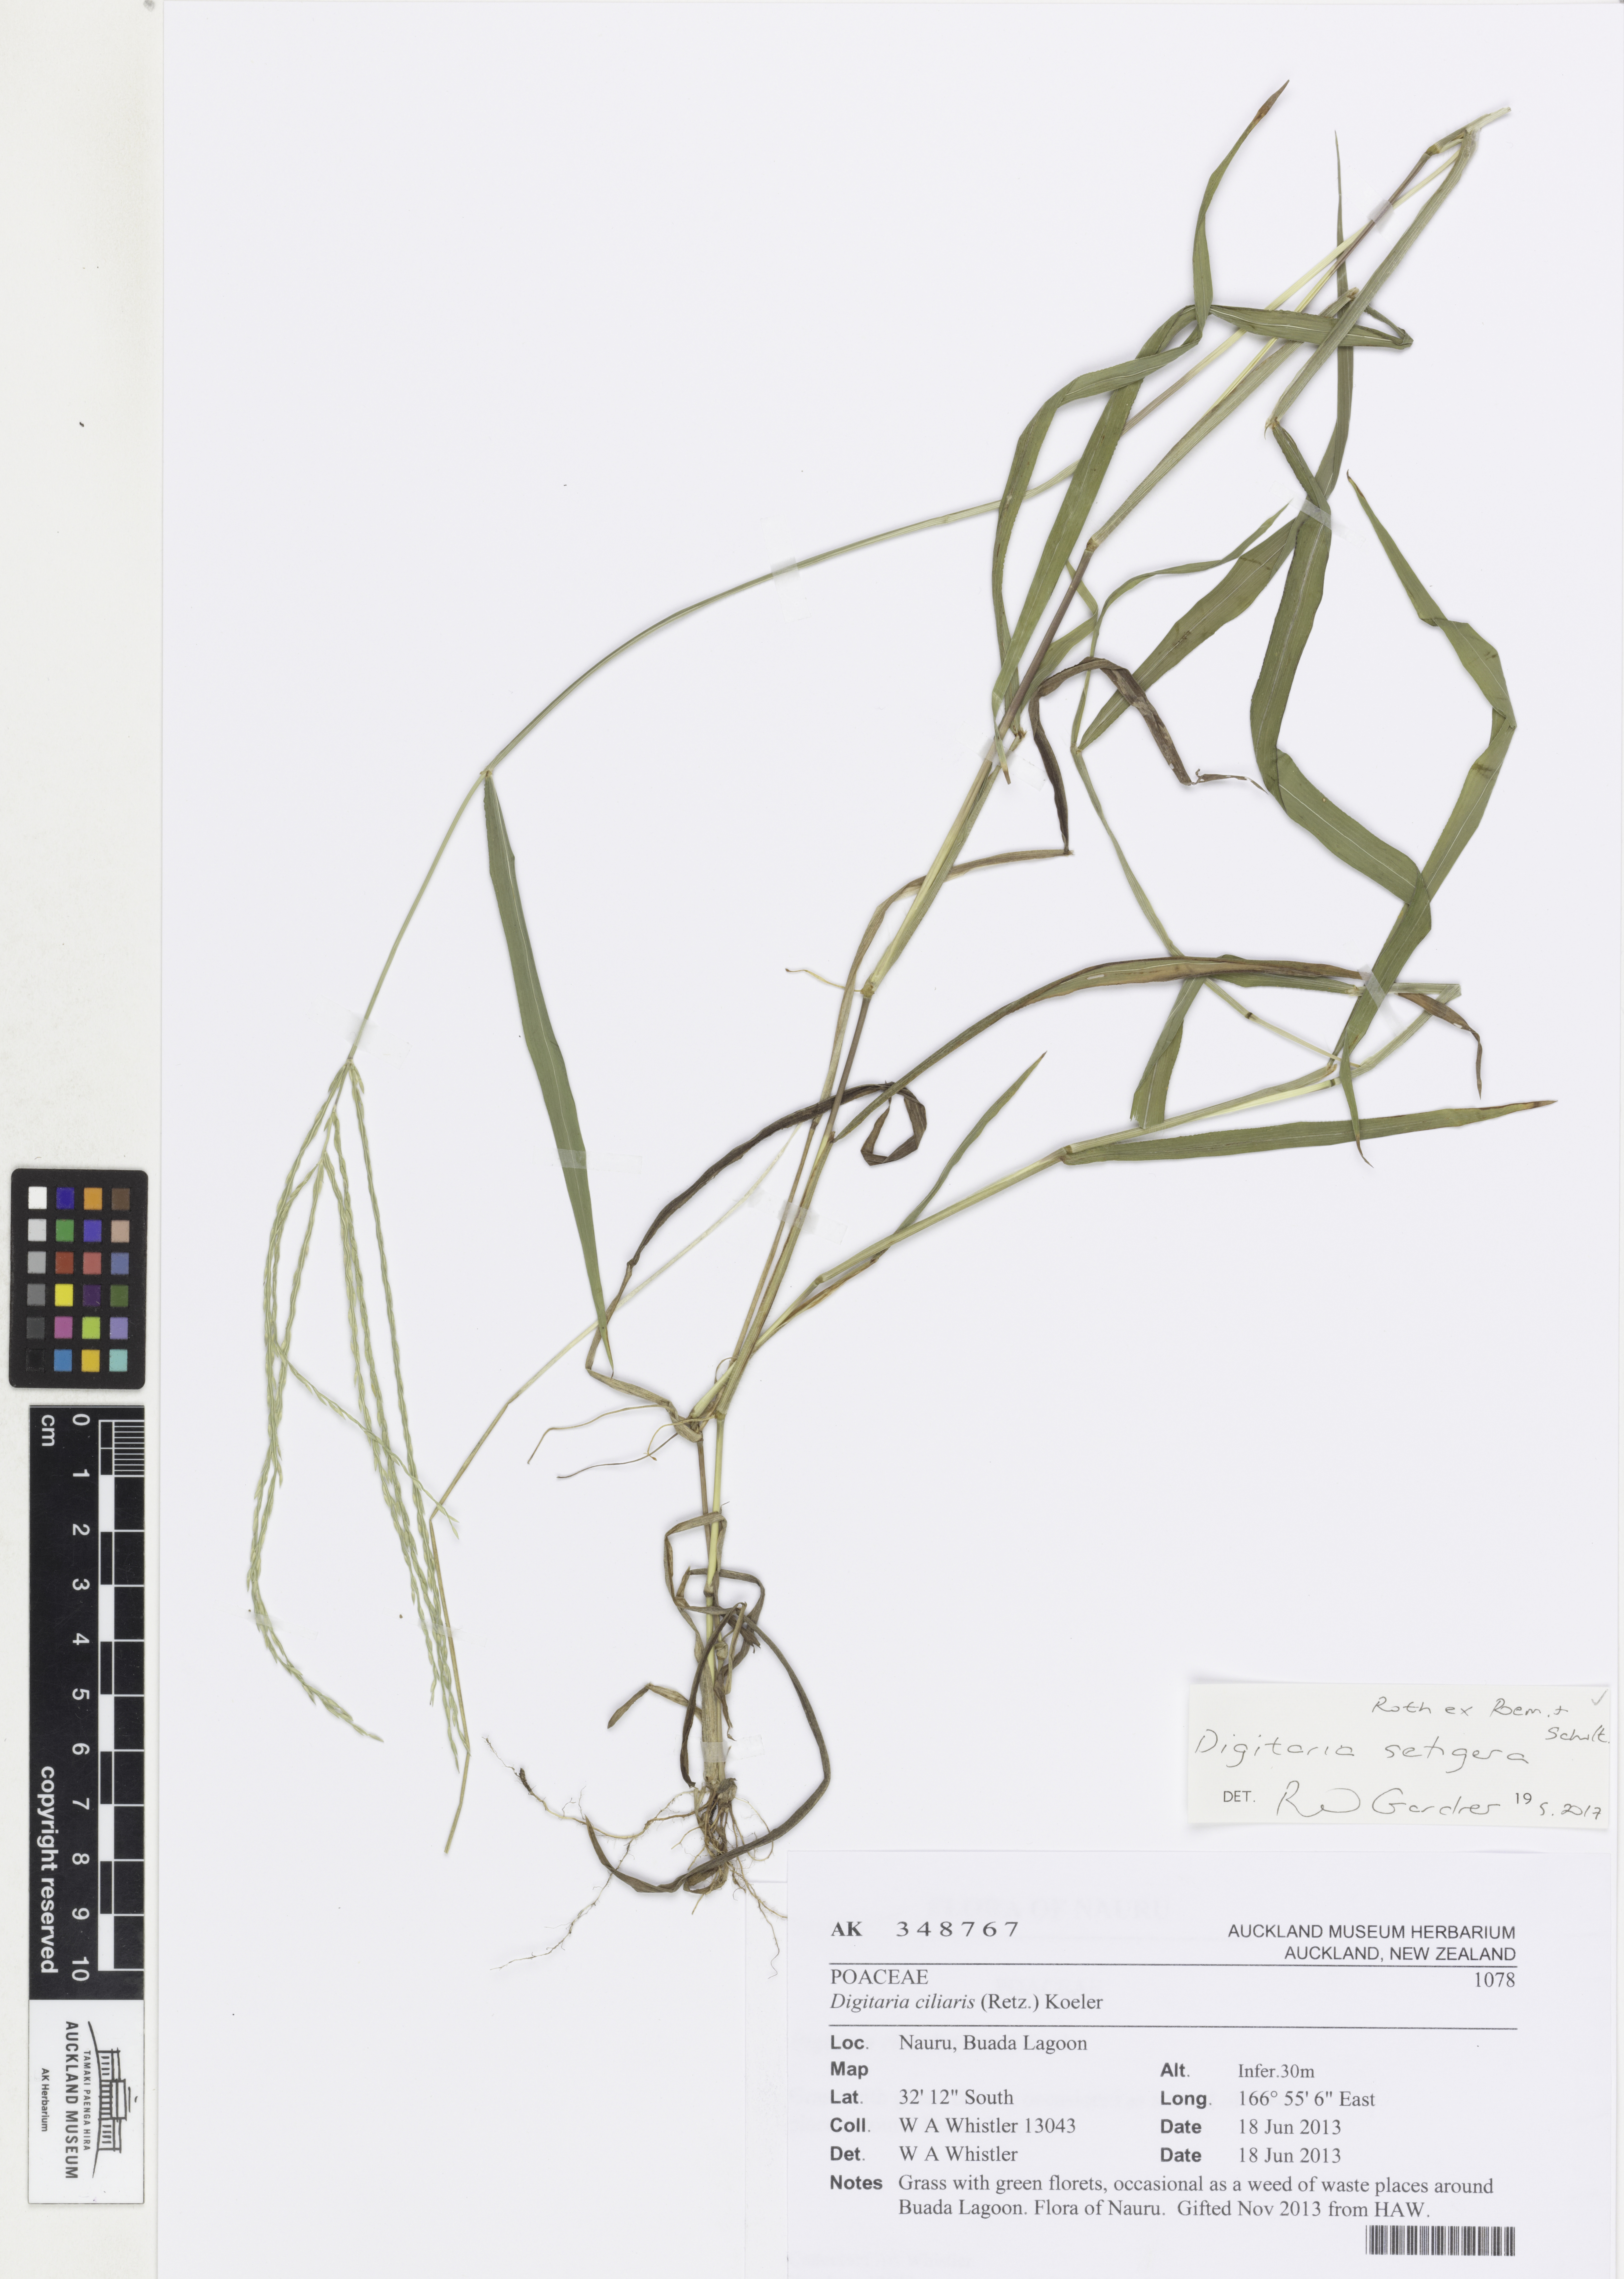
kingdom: Plantae
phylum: Tracheophyta
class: Liliopsida
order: Poales
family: Poaceae
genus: Digitaria
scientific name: Digitaria setigera
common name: East indian crabgrass
